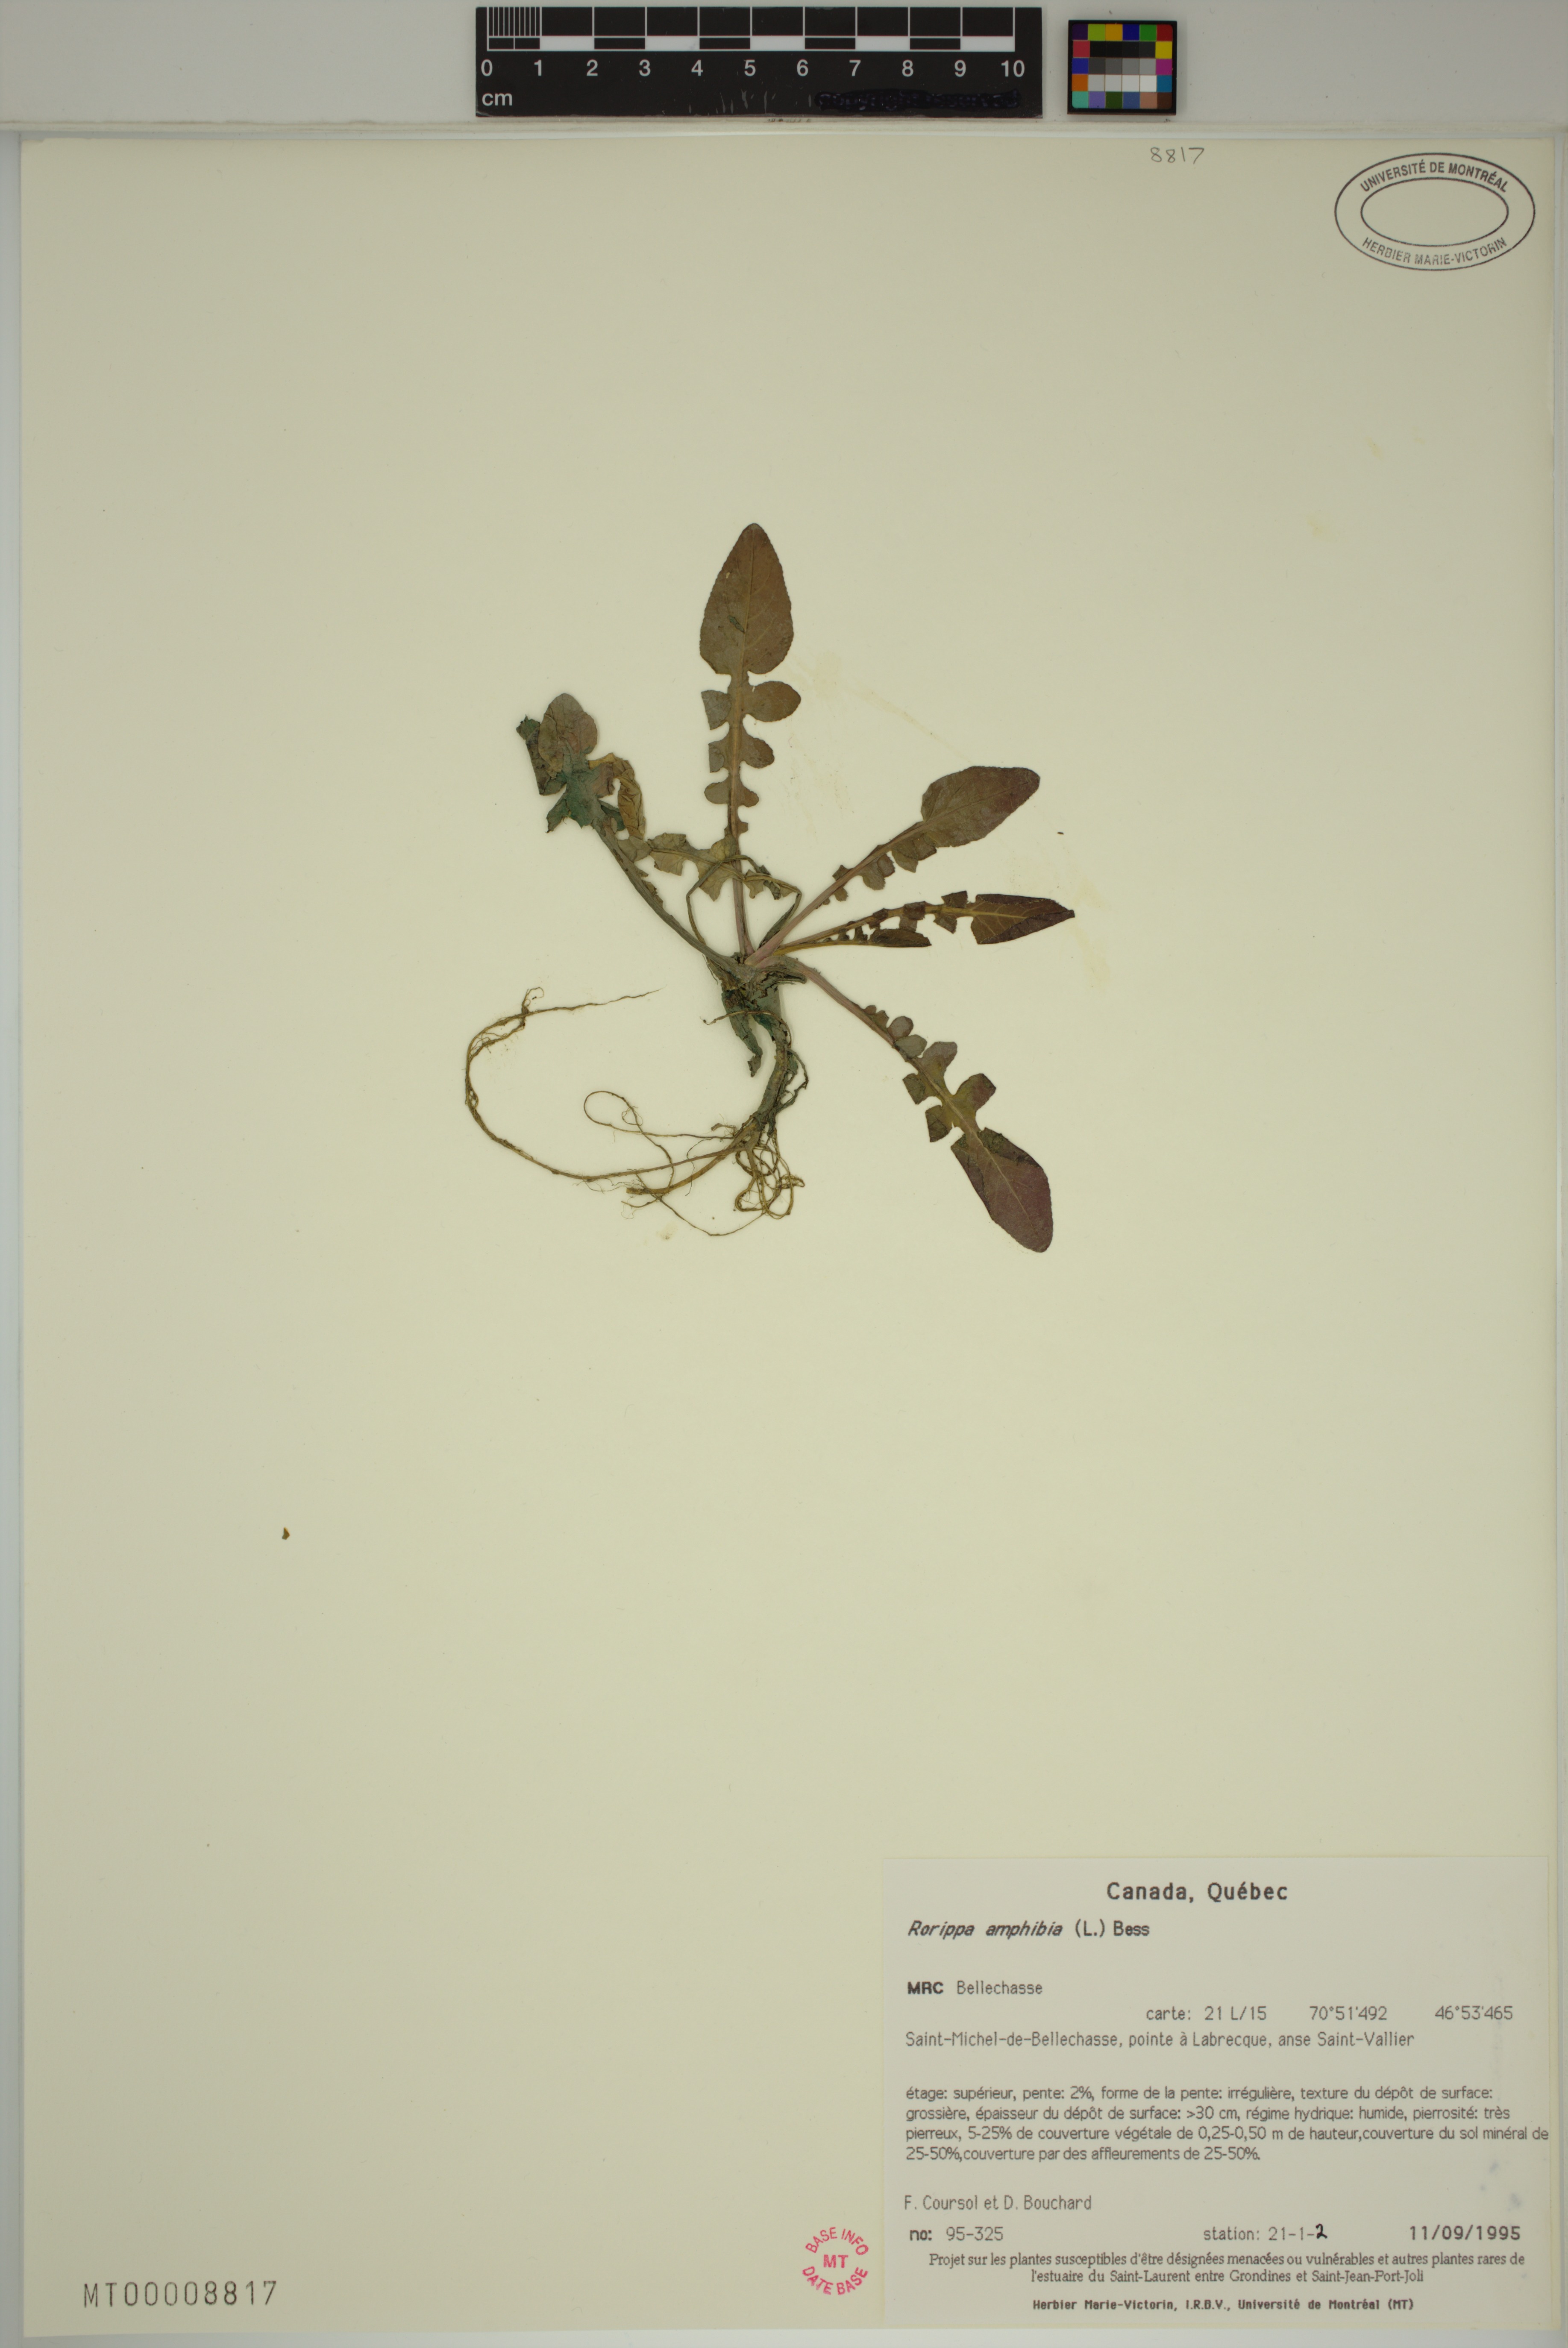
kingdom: Plantae
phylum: Tracheophyta
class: Magnoliopsida
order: Brassicales
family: Brassicaceae
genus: Rorippa
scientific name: Rorippa amphibia
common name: Great yellow-cress
